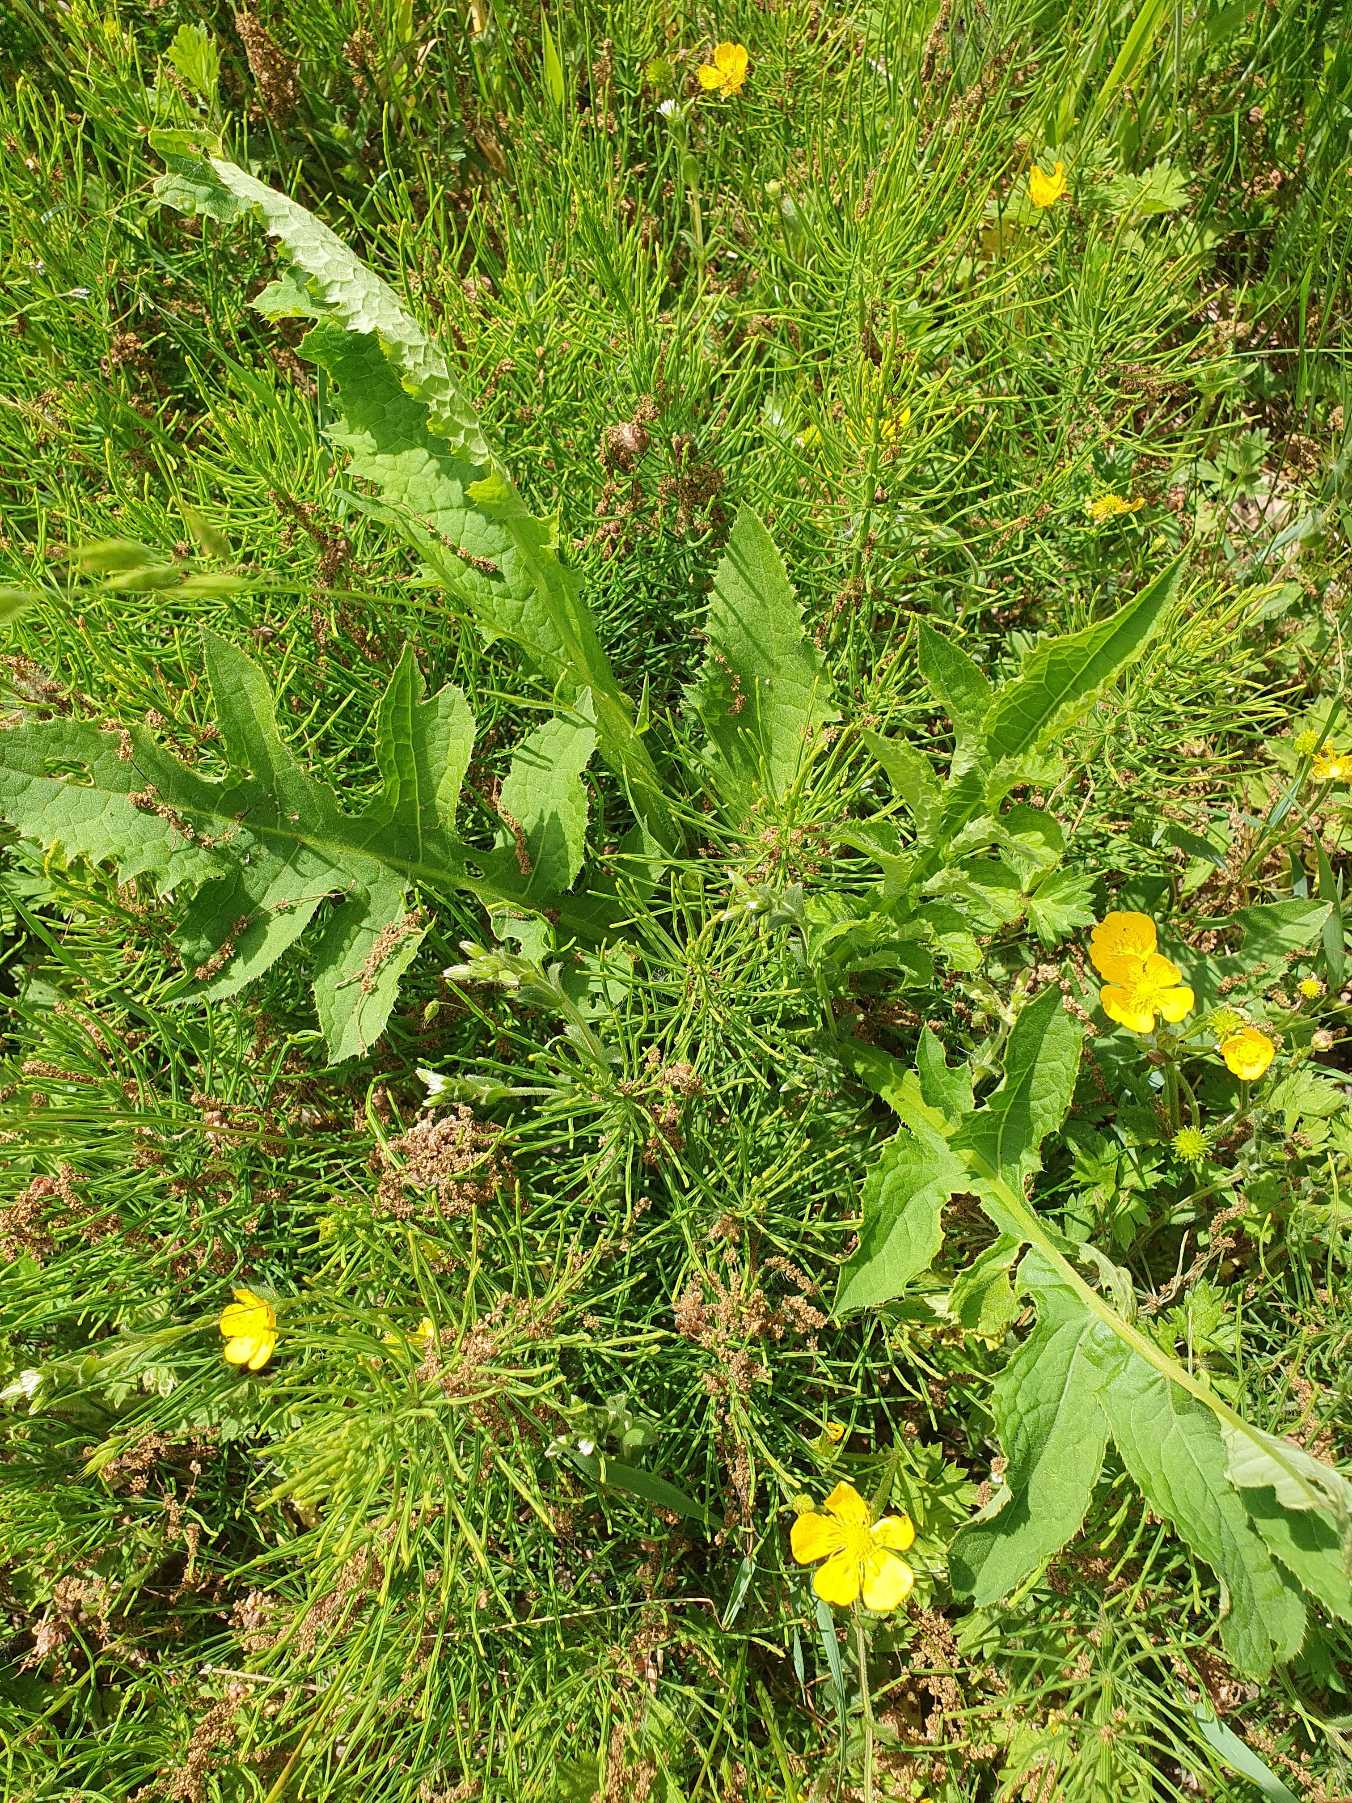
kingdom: Plantae
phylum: Tracheophyta
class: Magnoliopsida
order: Asterales
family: Asteraceae
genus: Cirsium
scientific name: Cirsium oleraceum
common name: Kål-tidsel
